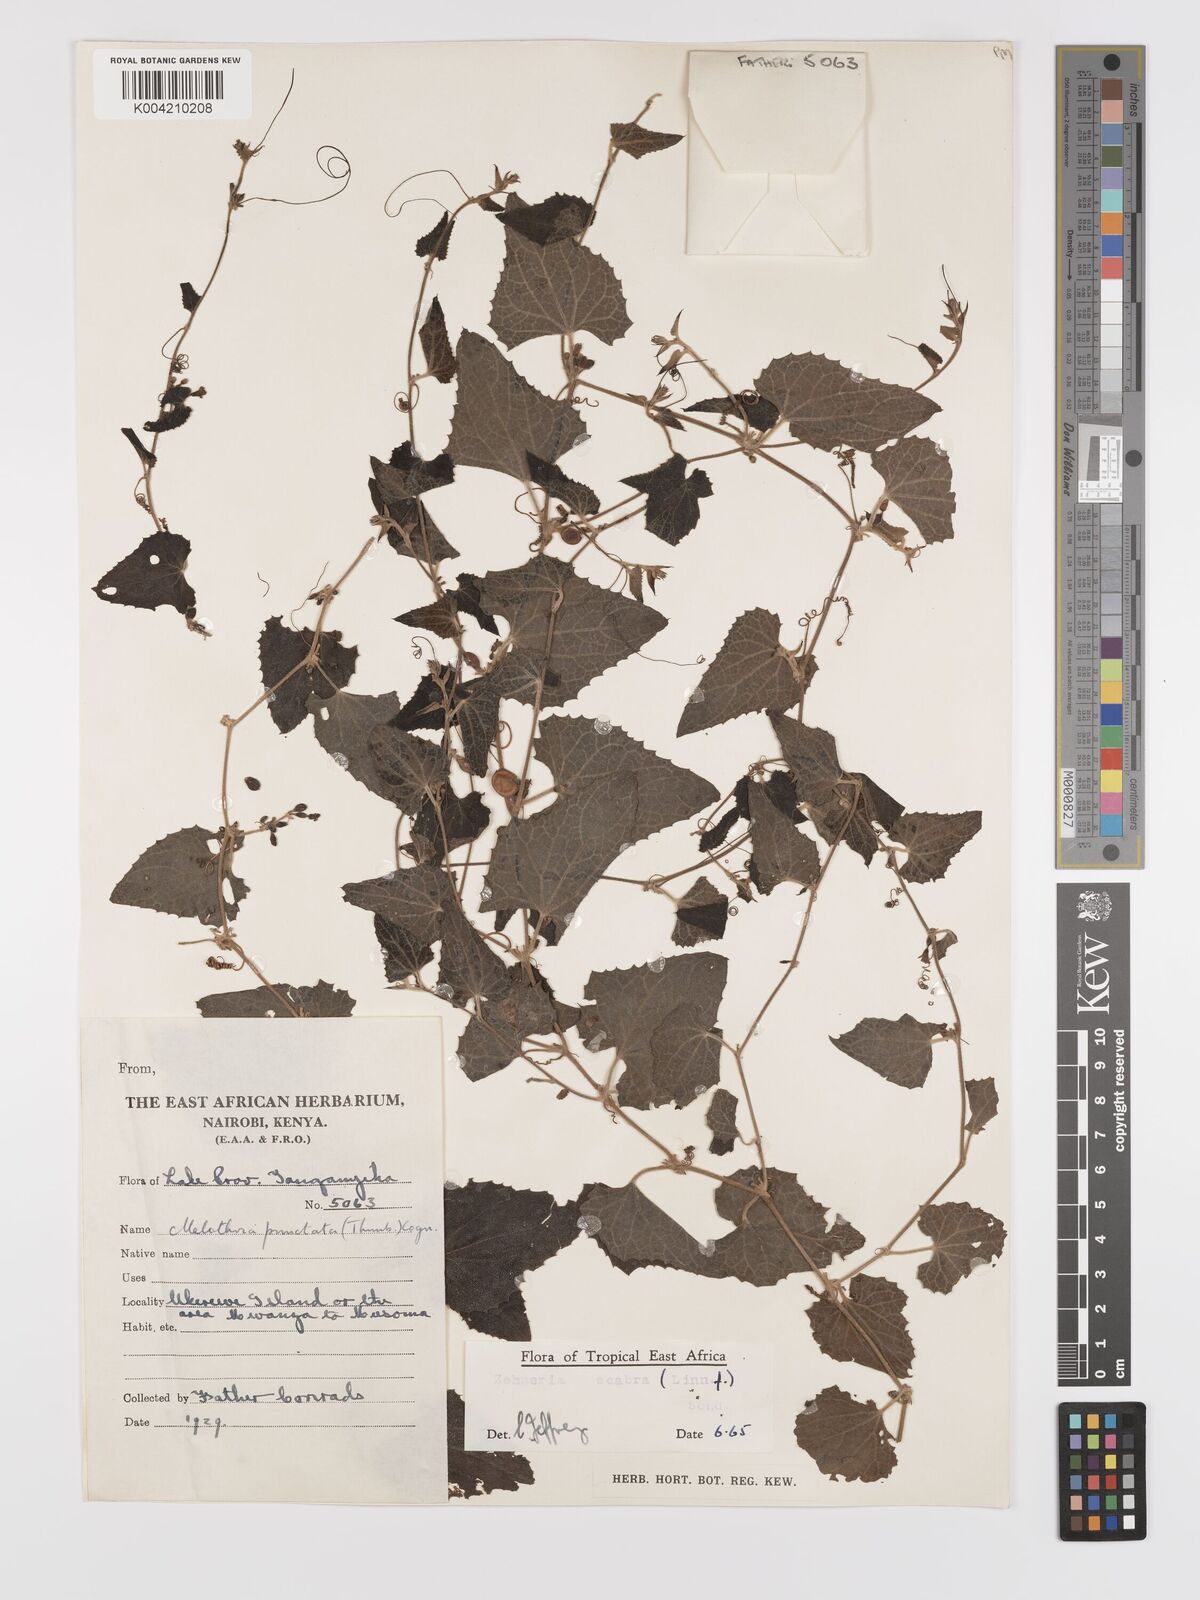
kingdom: Plantae
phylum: Tracheophyta
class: Magnoliopsida
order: Cucurbitales
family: Cucurbitaceae
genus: Zehneria
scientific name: Zehneria scabra
